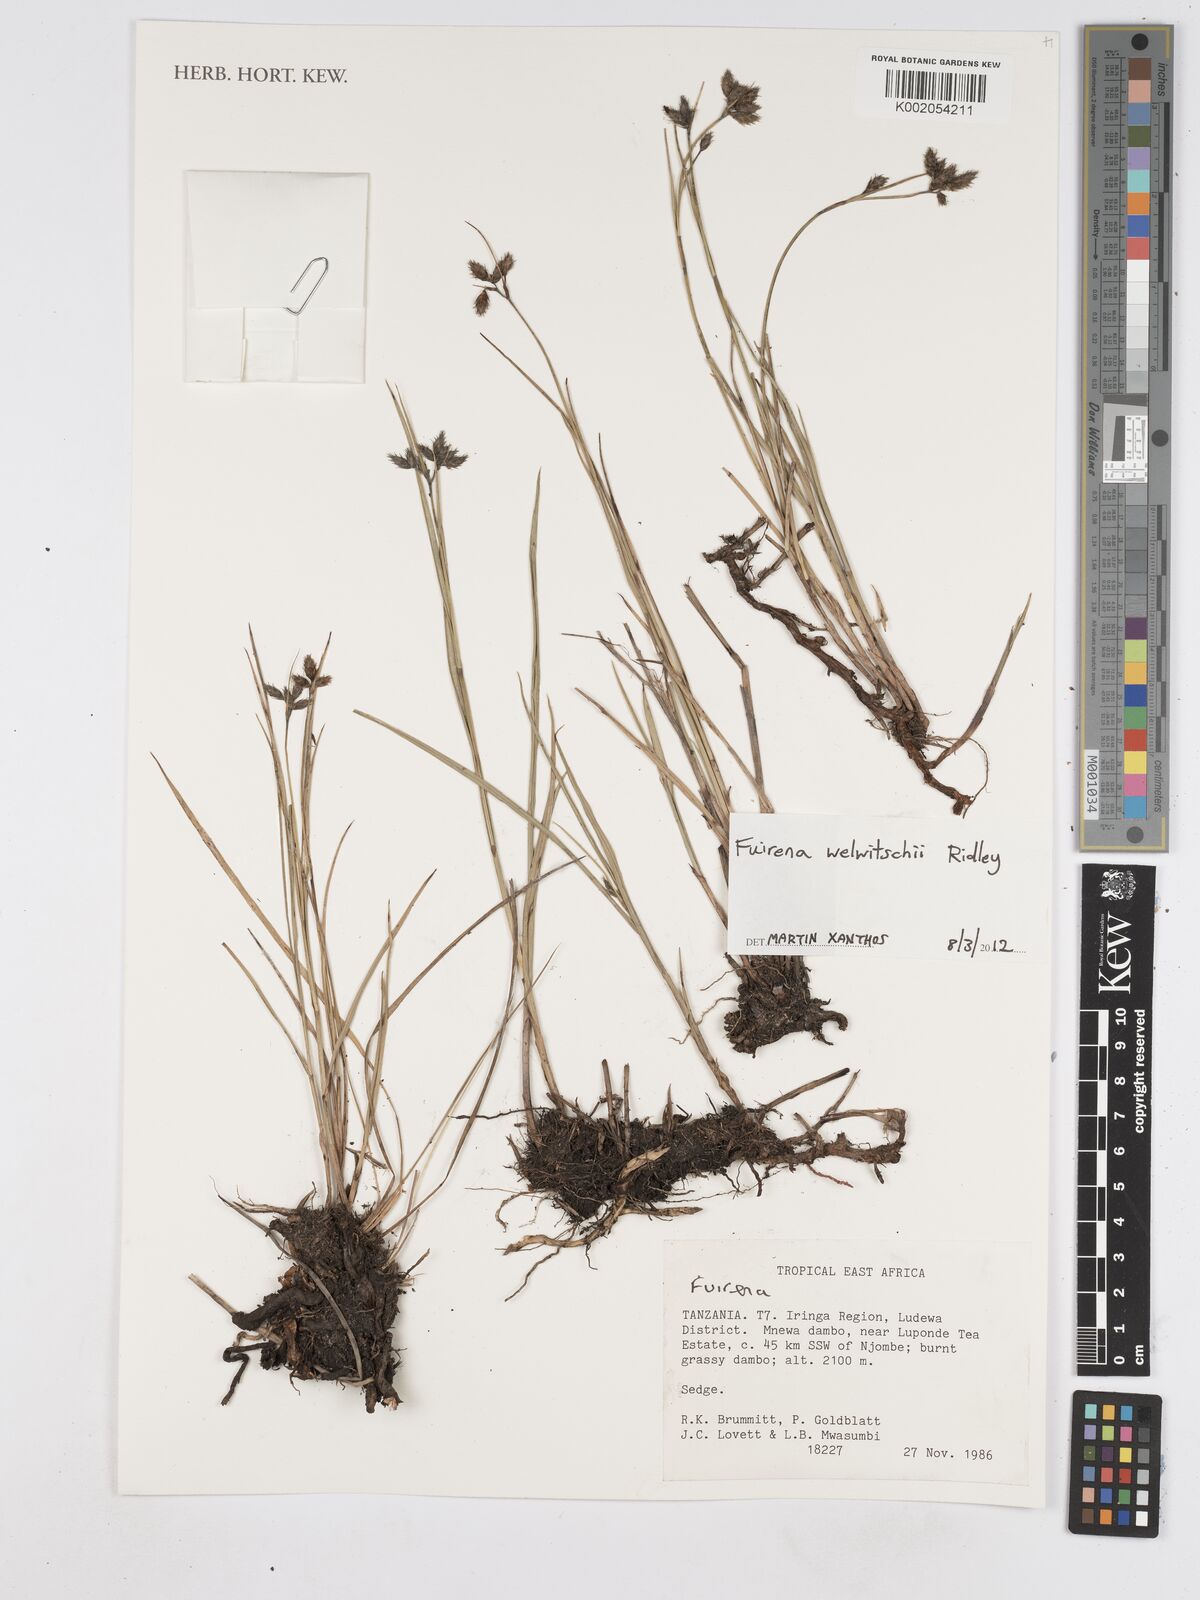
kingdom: Plantae
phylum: Tracheophyta
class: Liliopsida
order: Poales
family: Cyperaceae
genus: Fuirena
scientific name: Fuirena welwitschii
